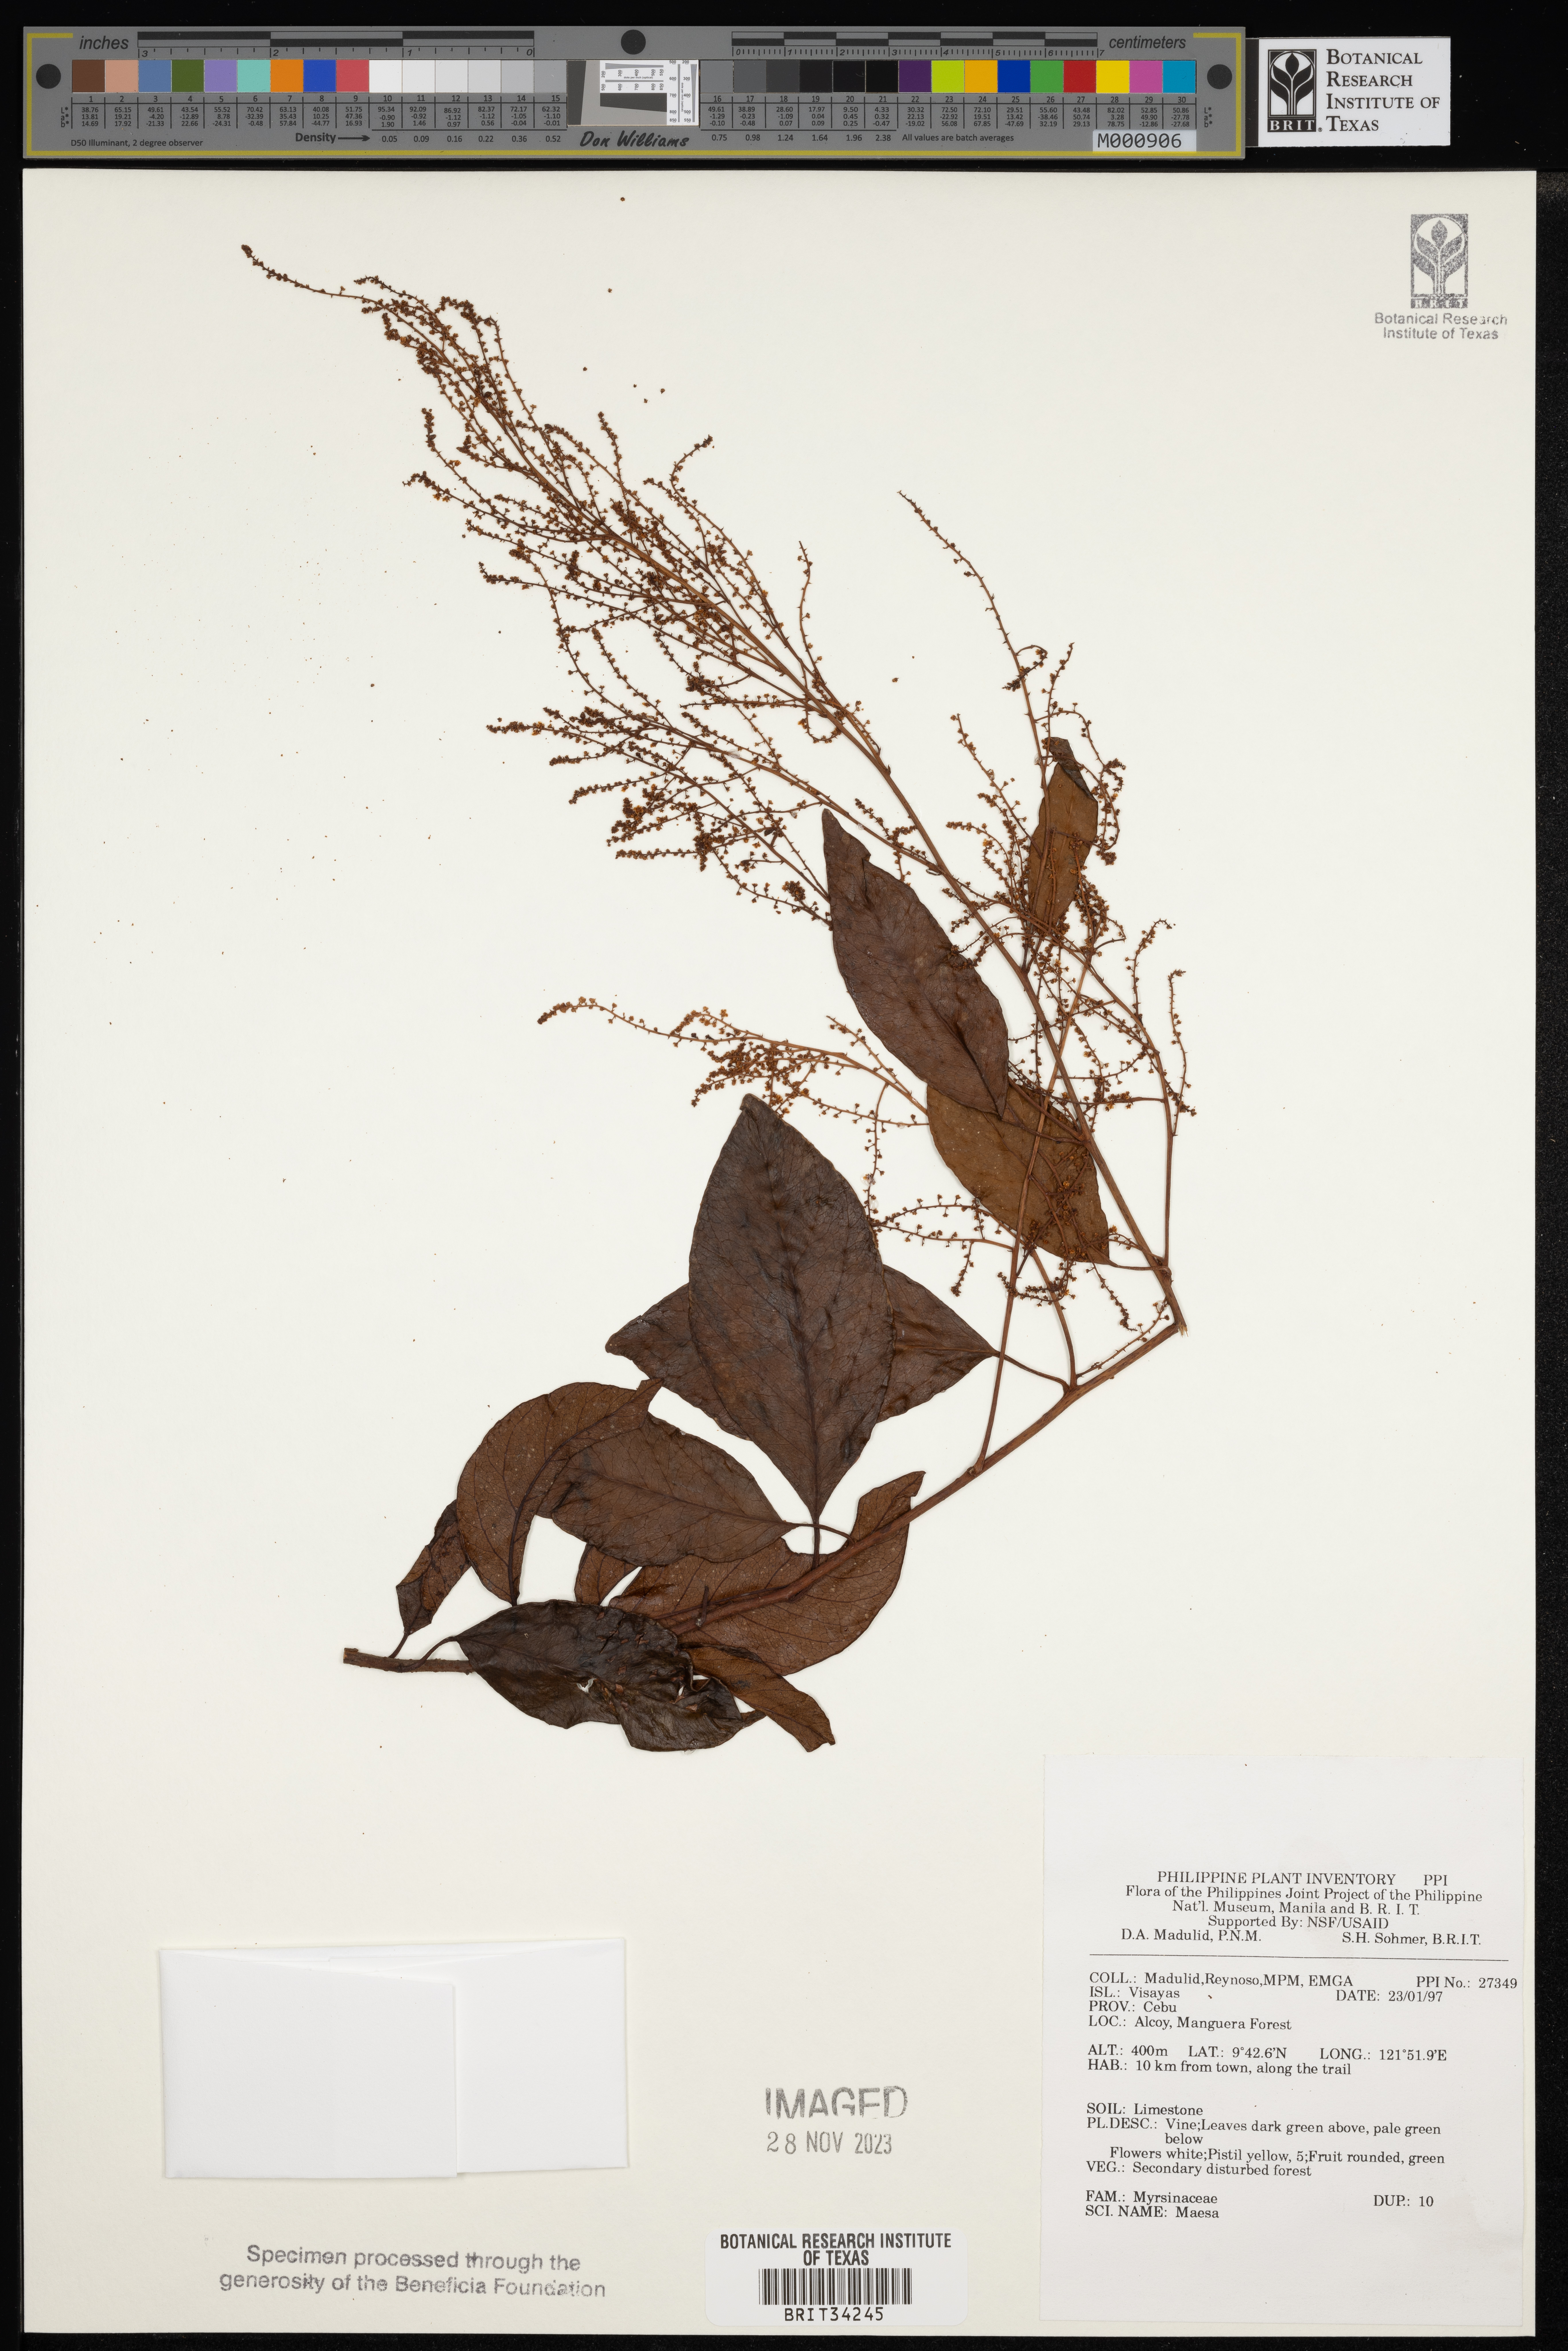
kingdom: Plantae
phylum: Tracheophyta
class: Magnoliopsida
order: Ericales
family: Primulaceae
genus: Maesa
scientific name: Maesa
